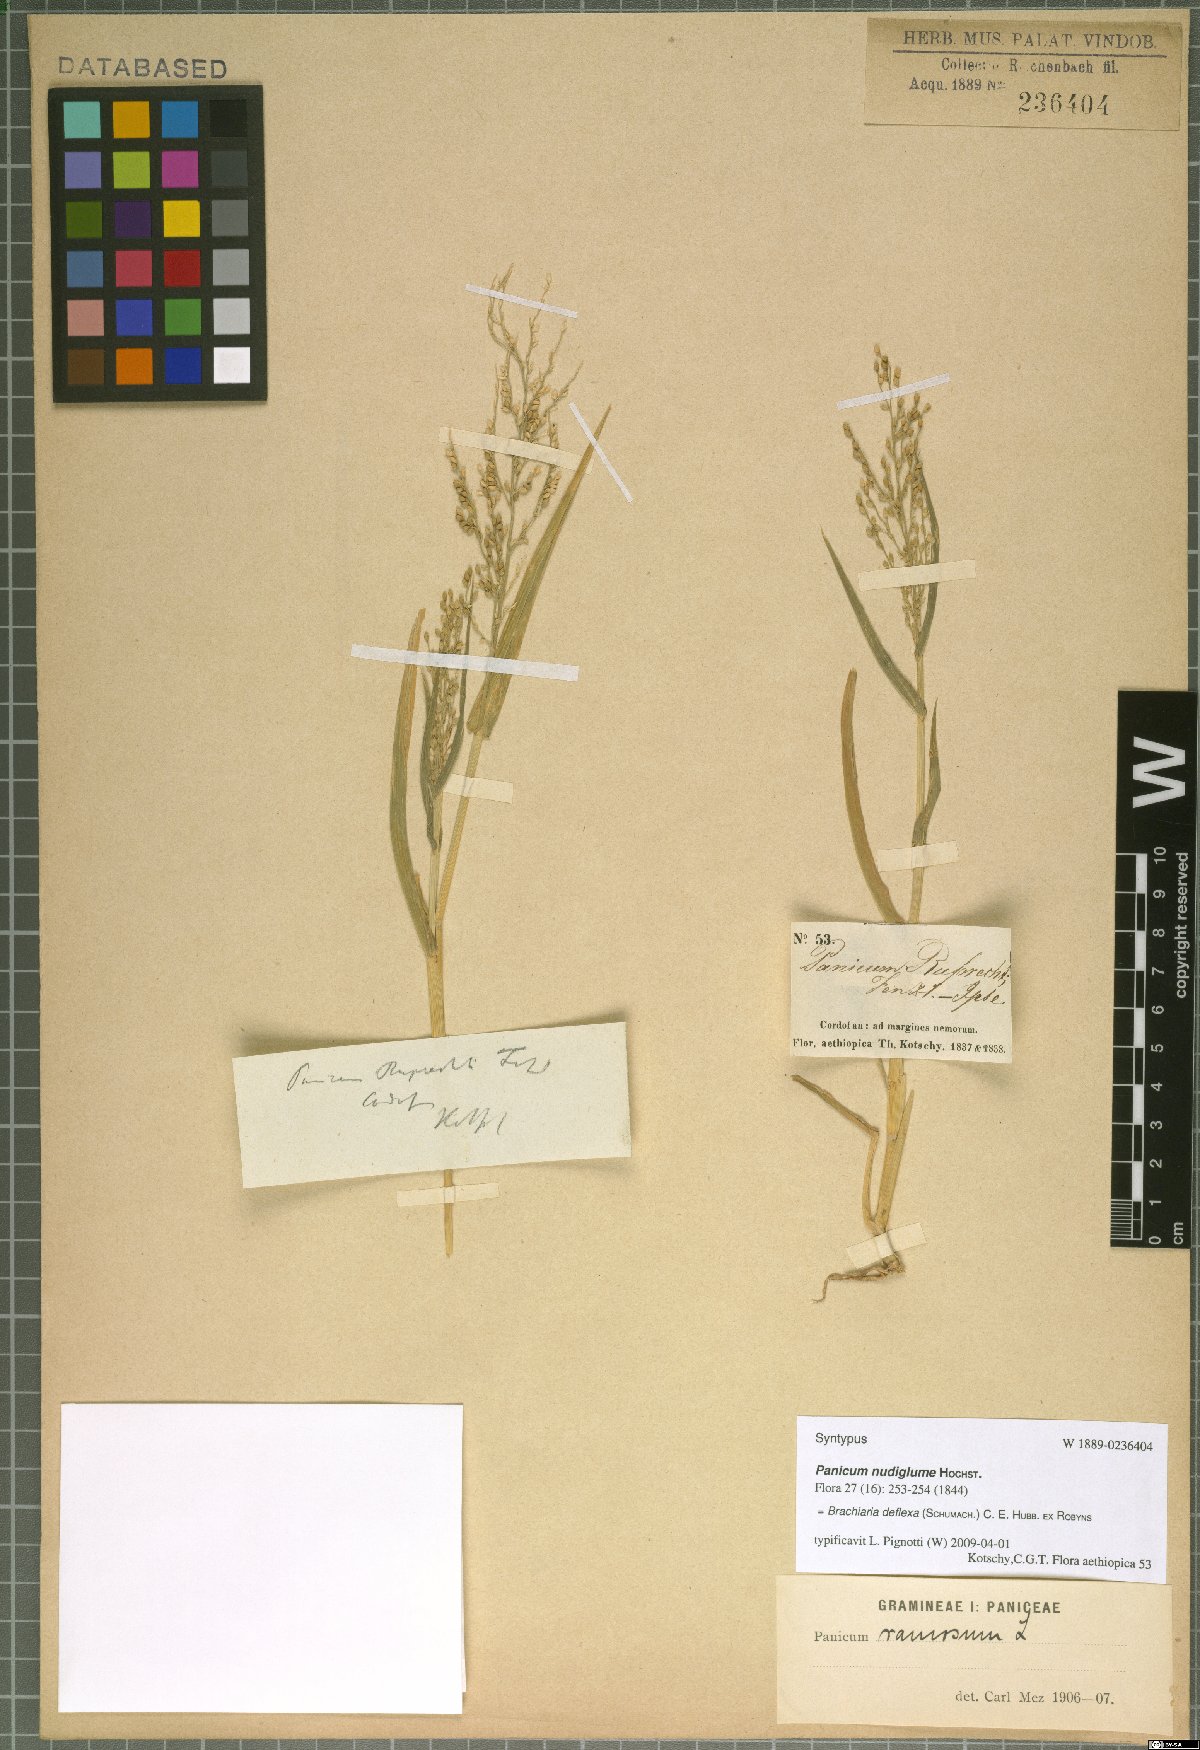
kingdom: Plantae
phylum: Tracheophyta
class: Liliopsida
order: Poales
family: Poaceae
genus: Urochloa
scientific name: Urochloa deflexa
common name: Guinea millet
